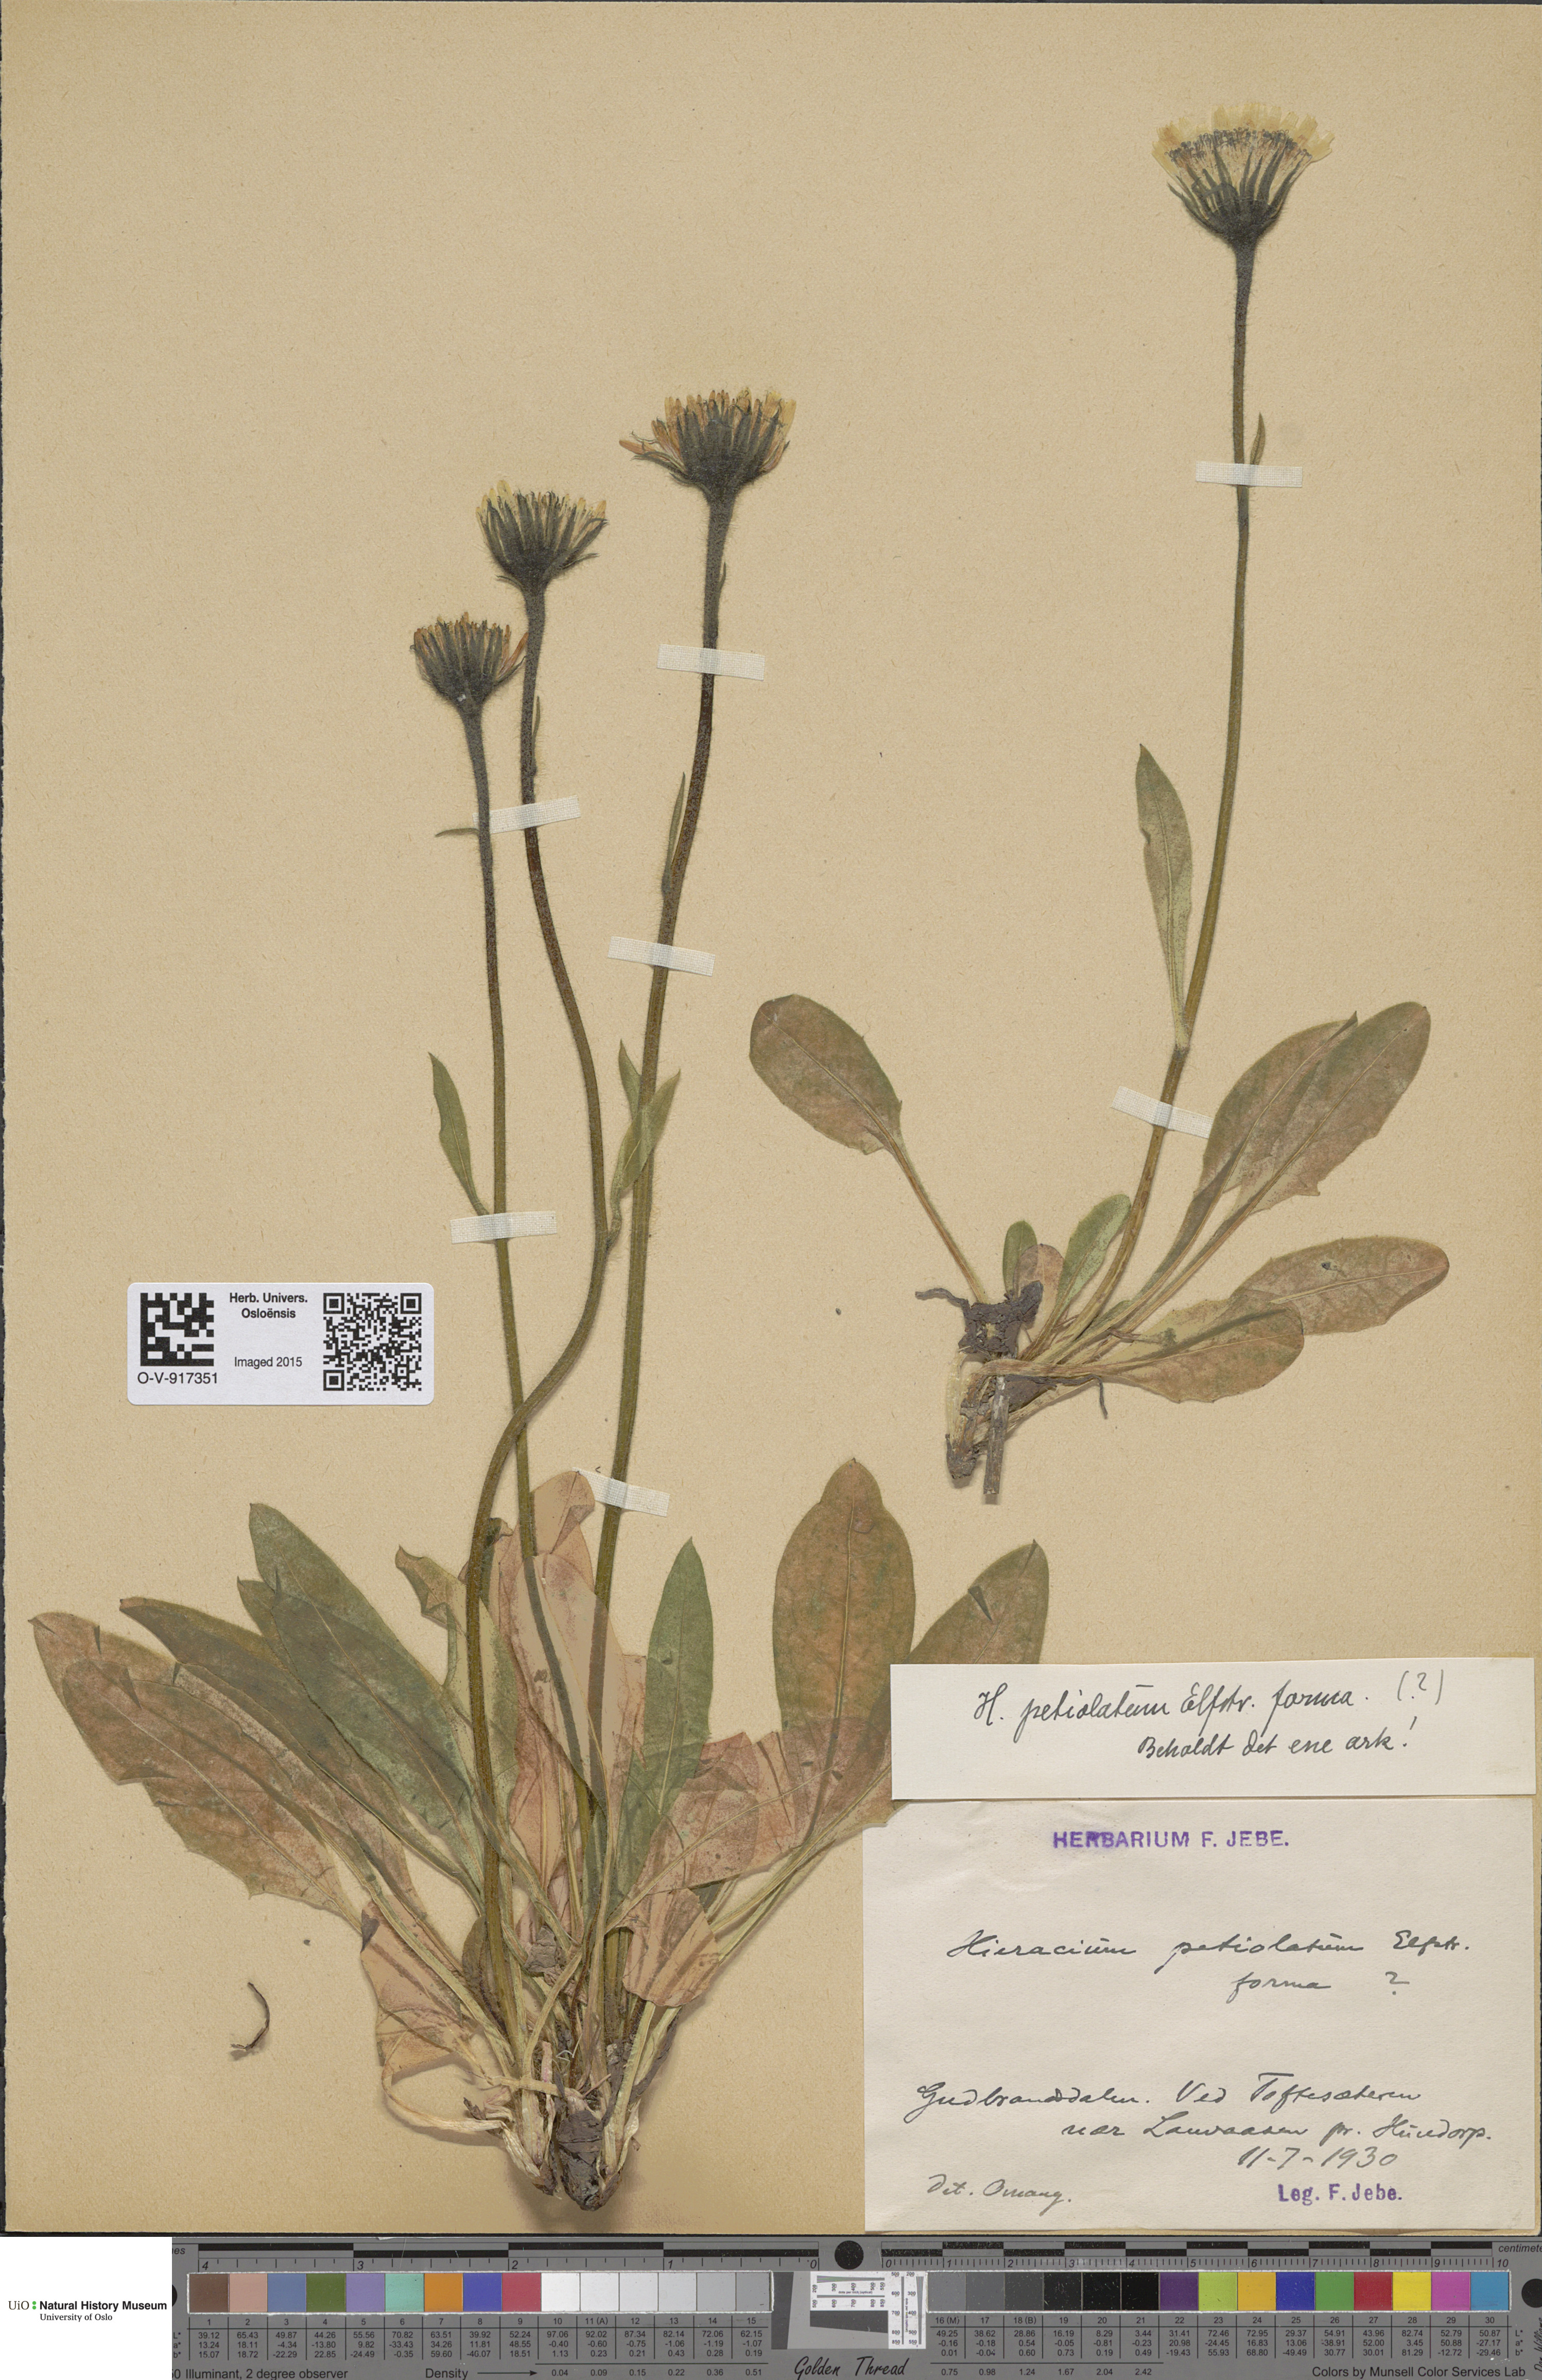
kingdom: Plantae
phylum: Tracheophyta
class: Magnoliopsida
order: Asterales
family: Asteraceae
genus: Hieracium
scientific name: Hieracium petiolatum
